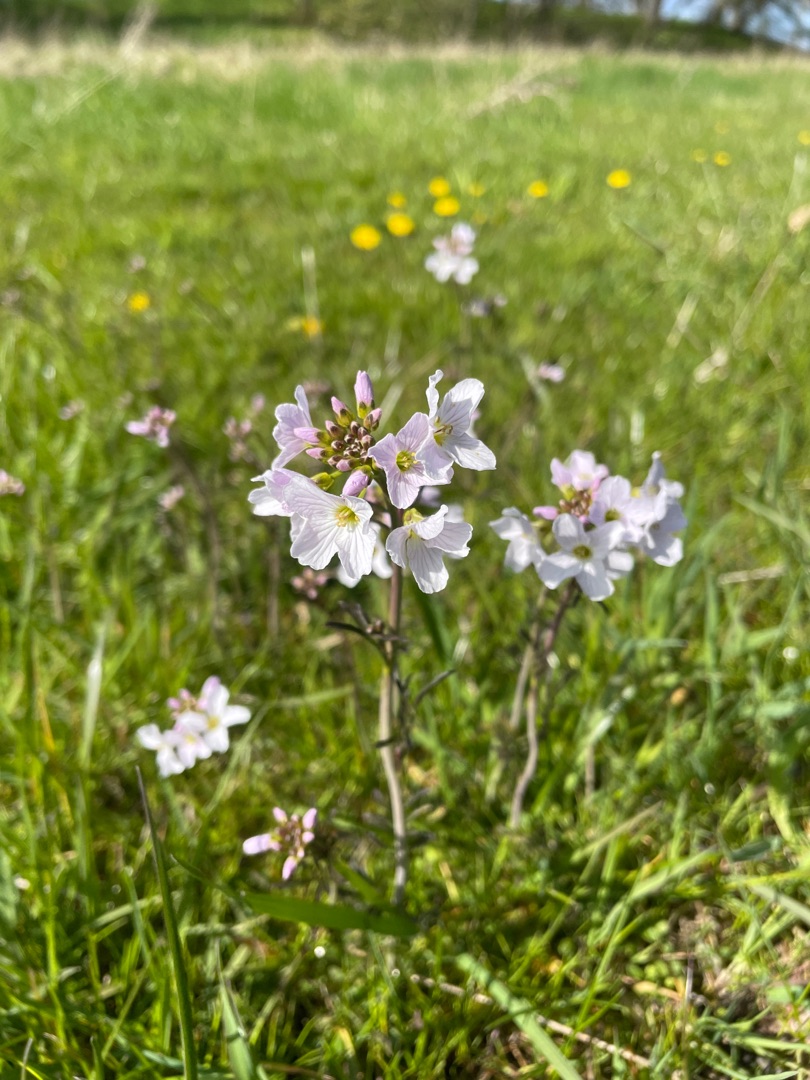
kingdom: Plantae
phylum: Tracheophyta
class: Magnoliopsida
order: Brassicales
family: Brassicaceae
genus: Cardamine
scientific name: Cardamine pratensis
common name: Engkarse
